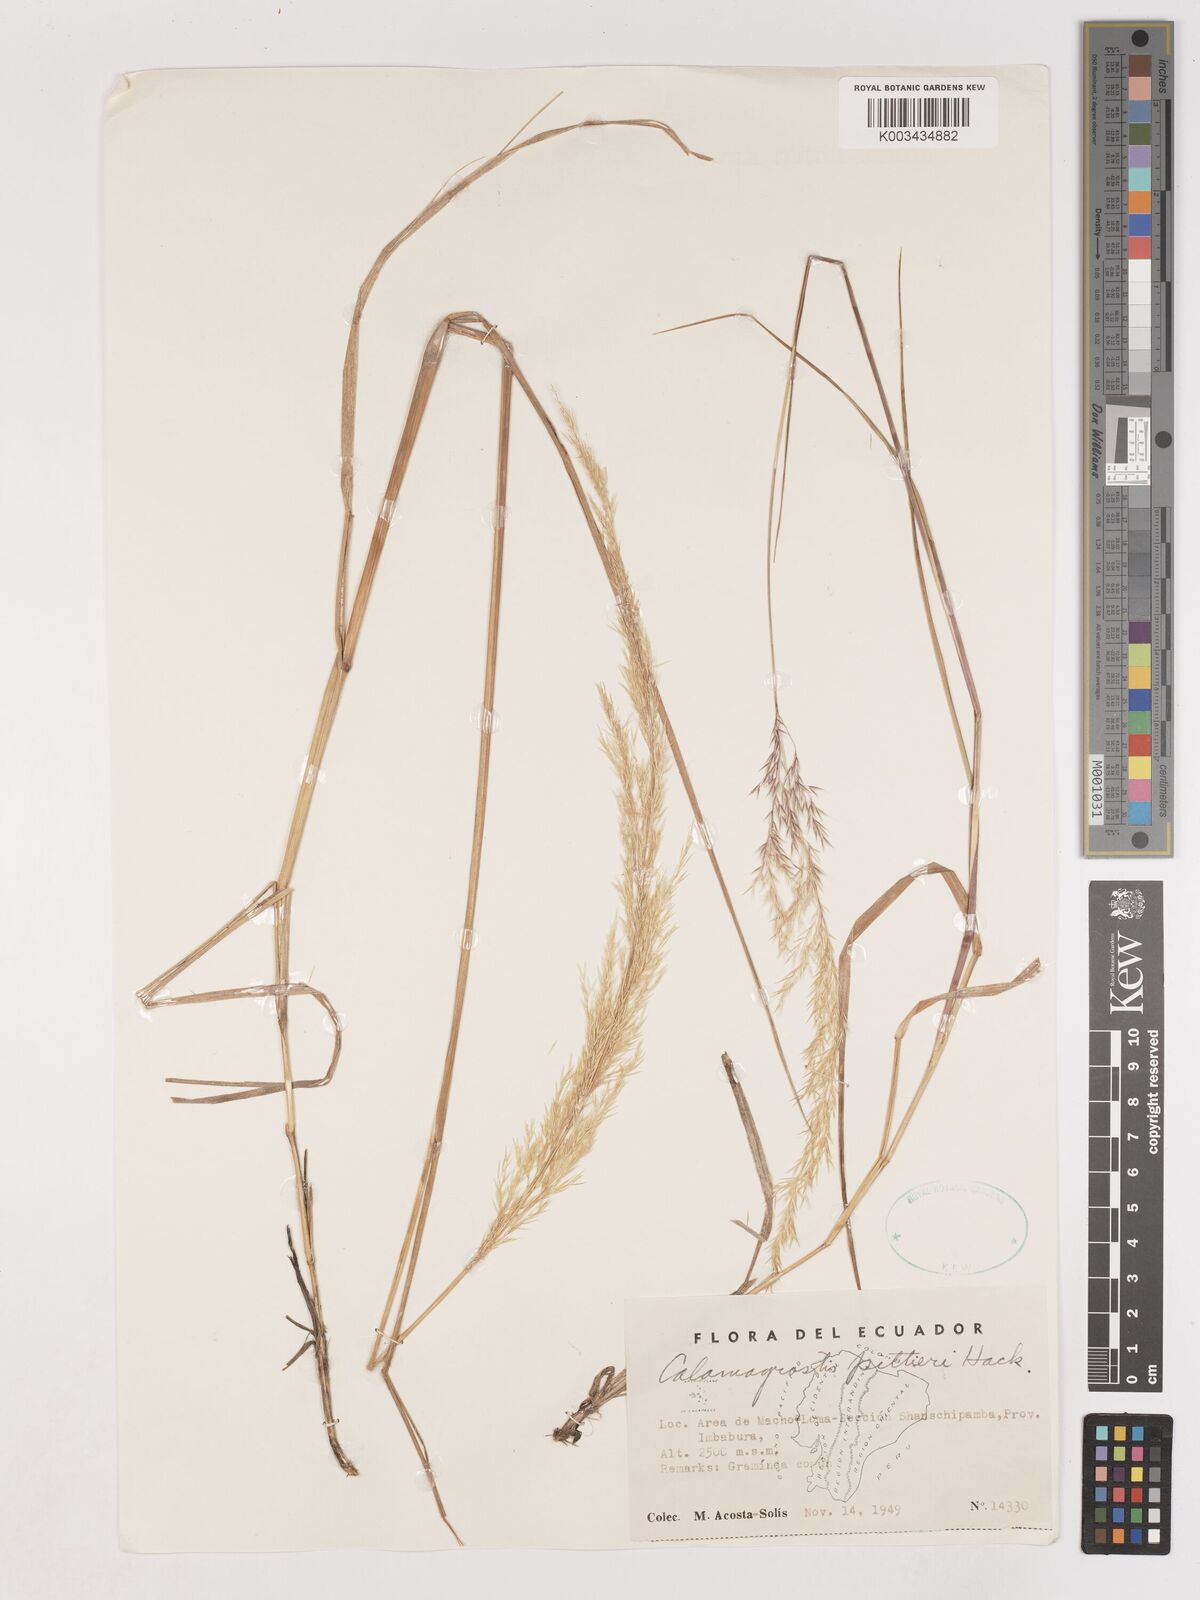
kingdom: Plantae
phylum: Tracheophyta
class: Liliopsida
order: Poales
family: Poaceae
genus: Calamagrostis
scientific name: Calamagrostis
